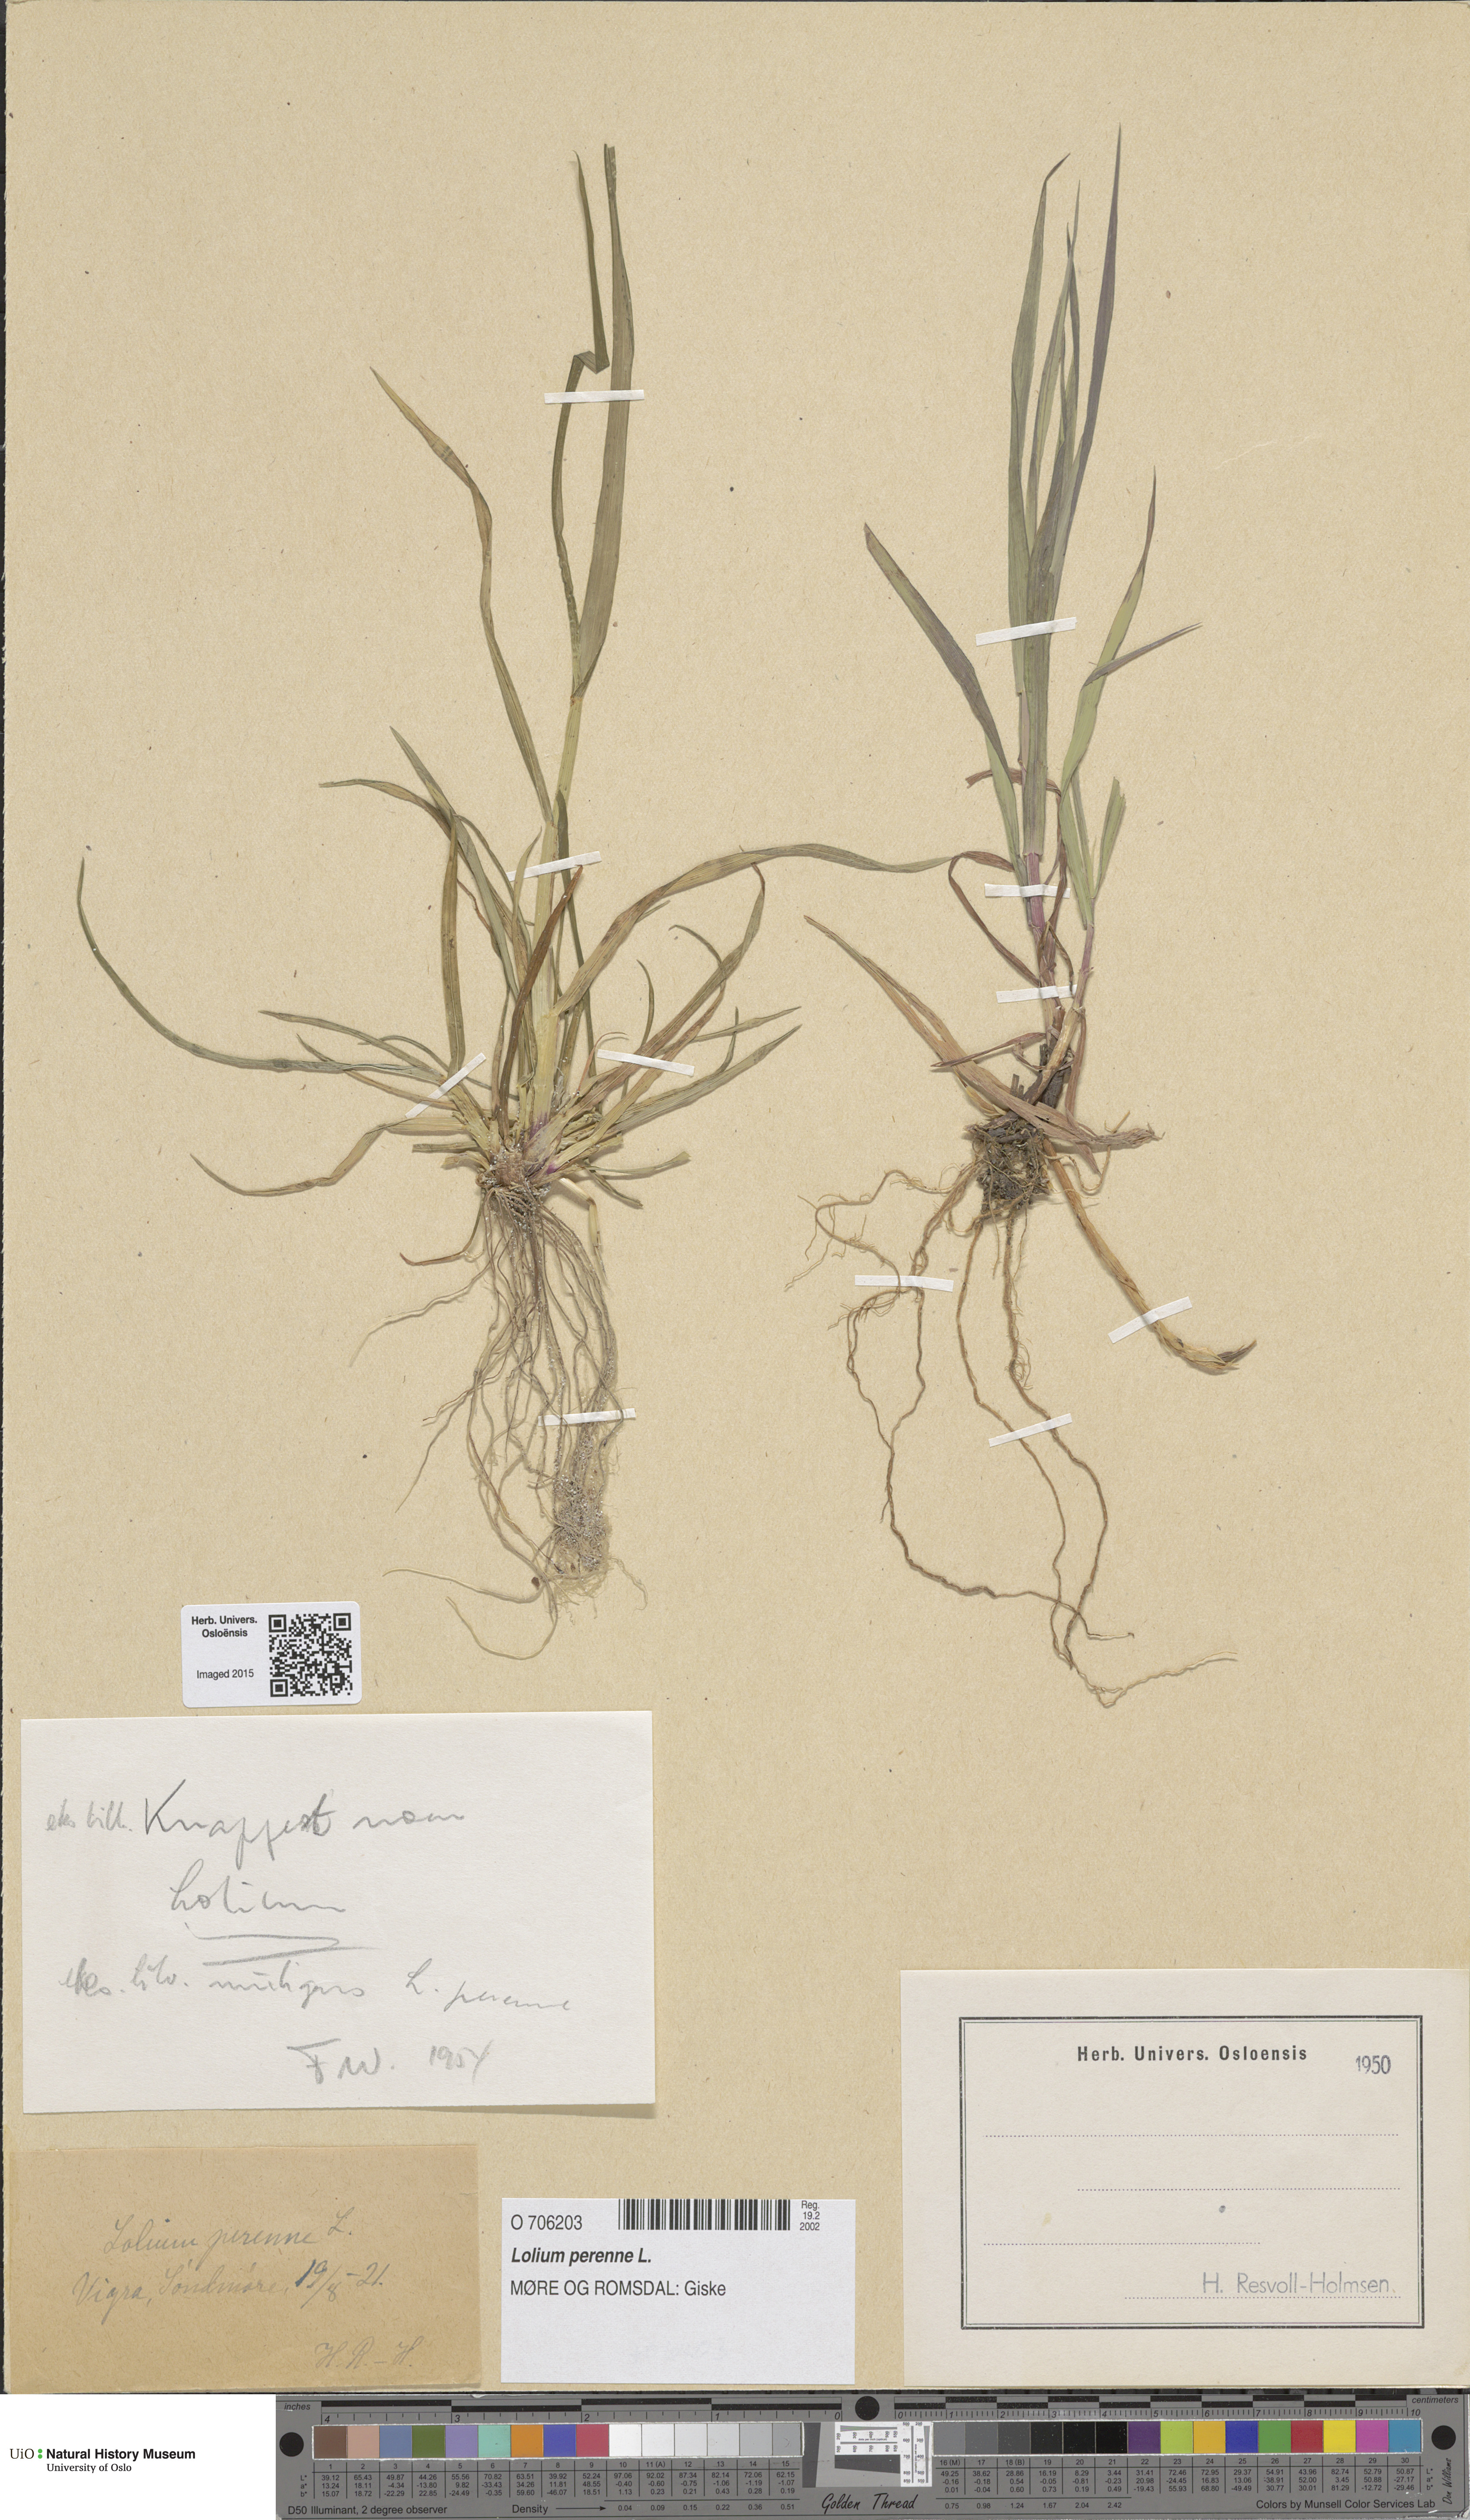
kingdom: Plantae
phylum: Tracheophyta
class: Liliopsida
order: Poales
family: Poaceae
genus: Lolium
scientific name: Lolium perenne
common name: Perennial ryegrass
